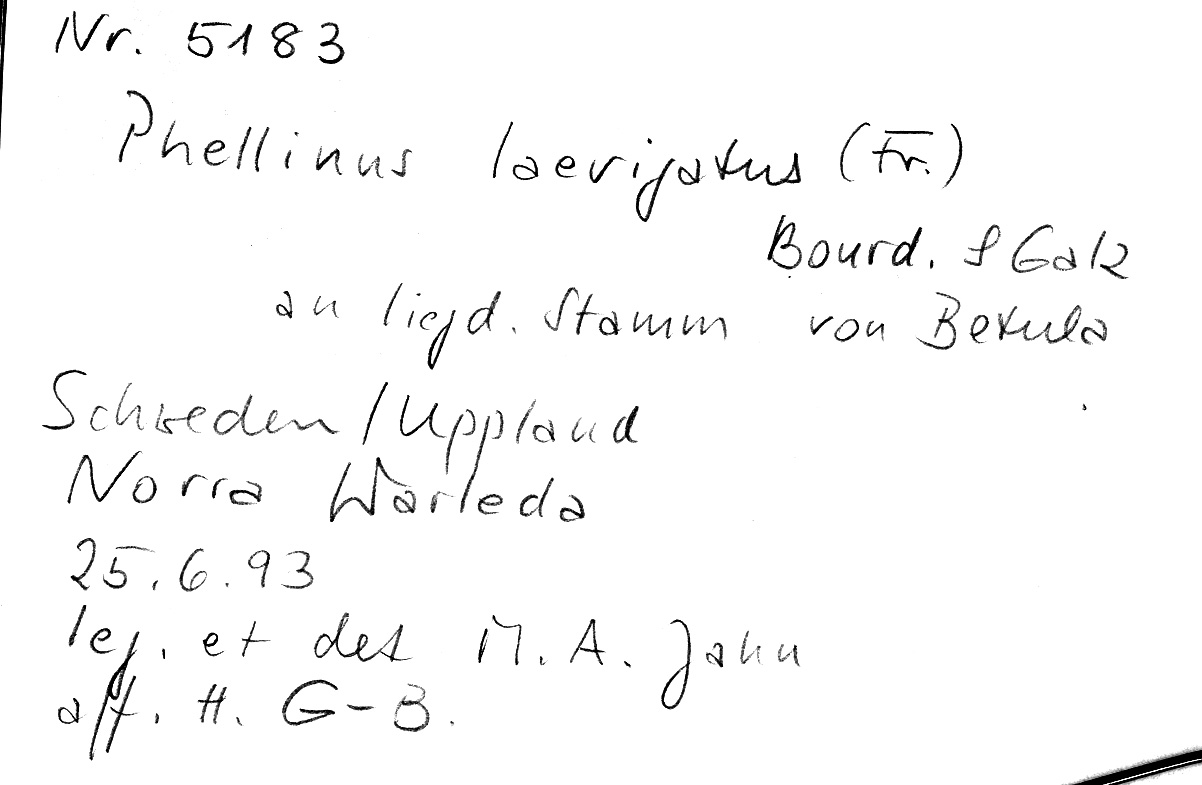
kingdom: Fungi
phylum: Basidiomycota
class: Agaricomycetes
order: Hymenochaetales
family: Hymenochaetaceae
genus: Phellinus
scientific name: Phellinus laevigatus
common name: Smooth bristle bracket
